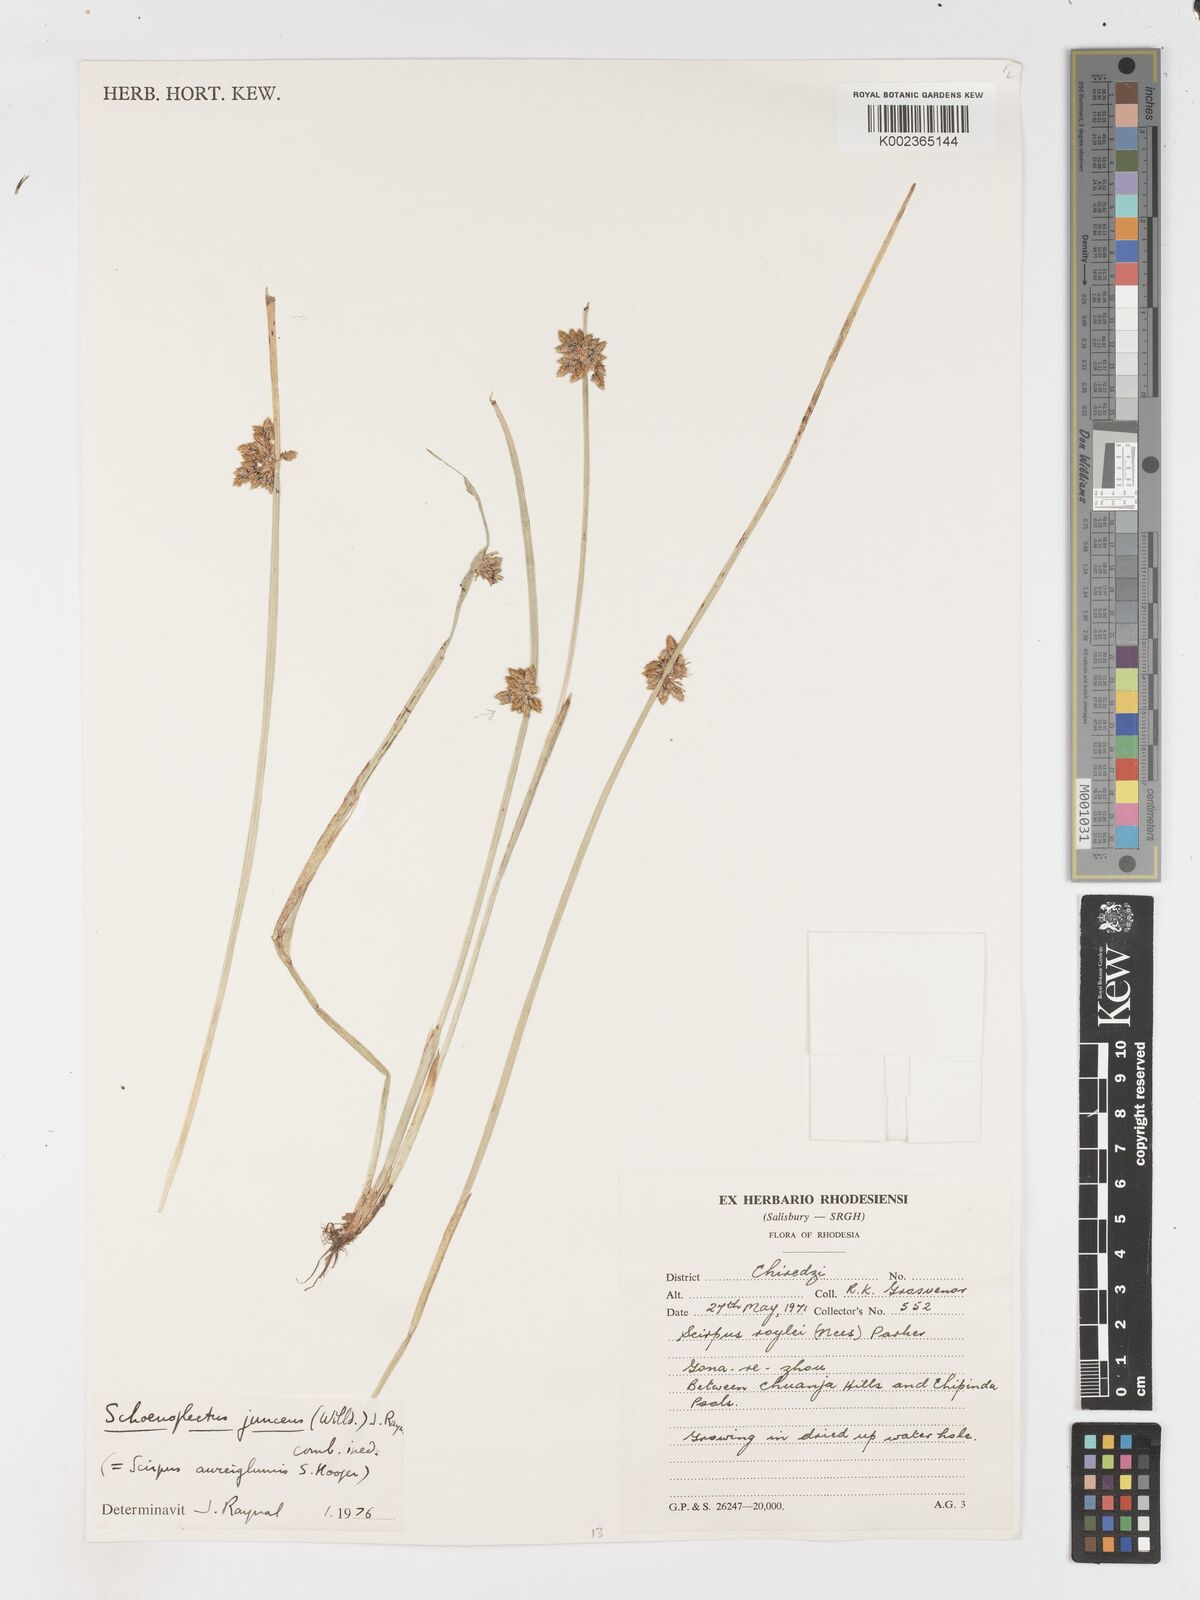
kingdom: Plantae
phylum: Tracheophyta
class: Liliopsida
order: Poales
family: Cyperaceae
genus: Schoenoplectus
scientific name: Schoenoplectus
